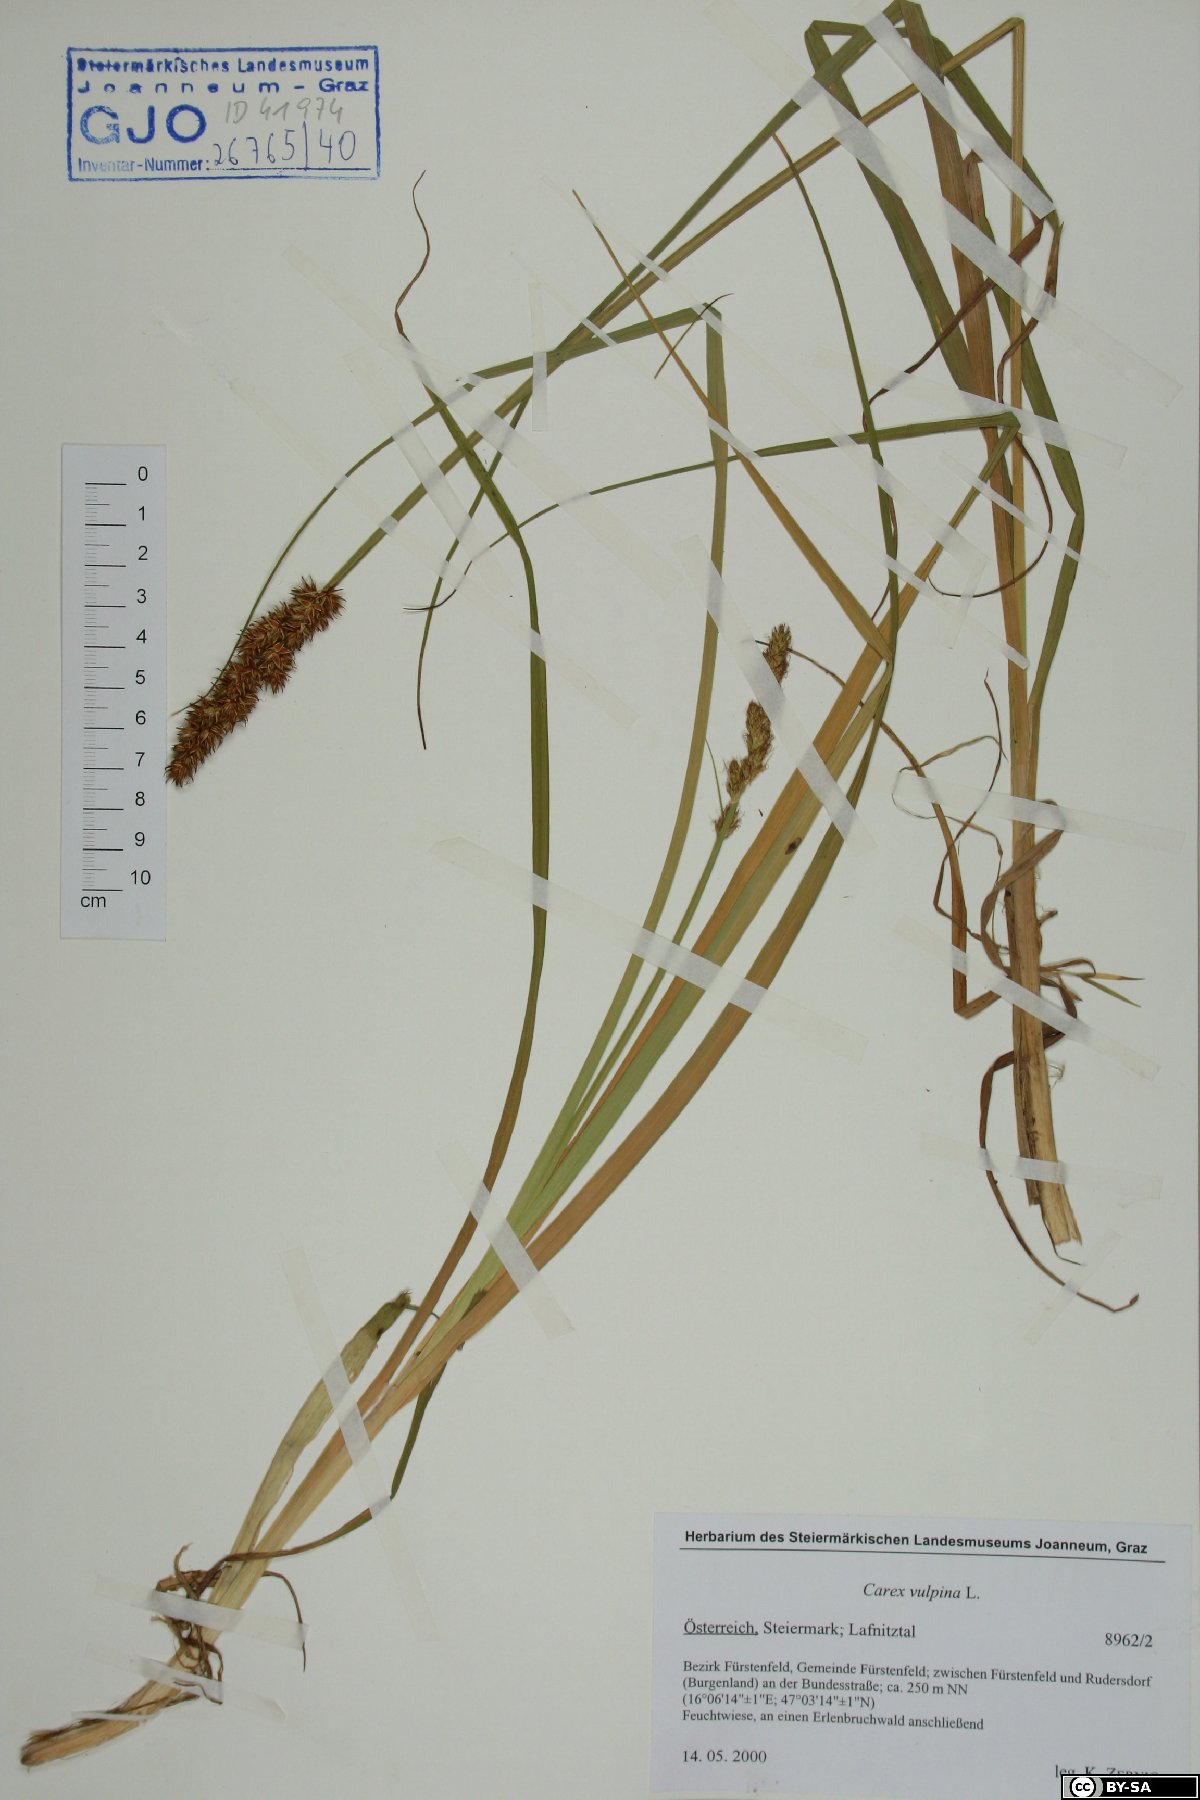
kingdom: Plantae
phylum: Tracheophyta
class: Liliopsida
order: Poales
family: Cyperaceae
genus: Carex
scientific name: Carex vulpina
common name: True fox-sedge
